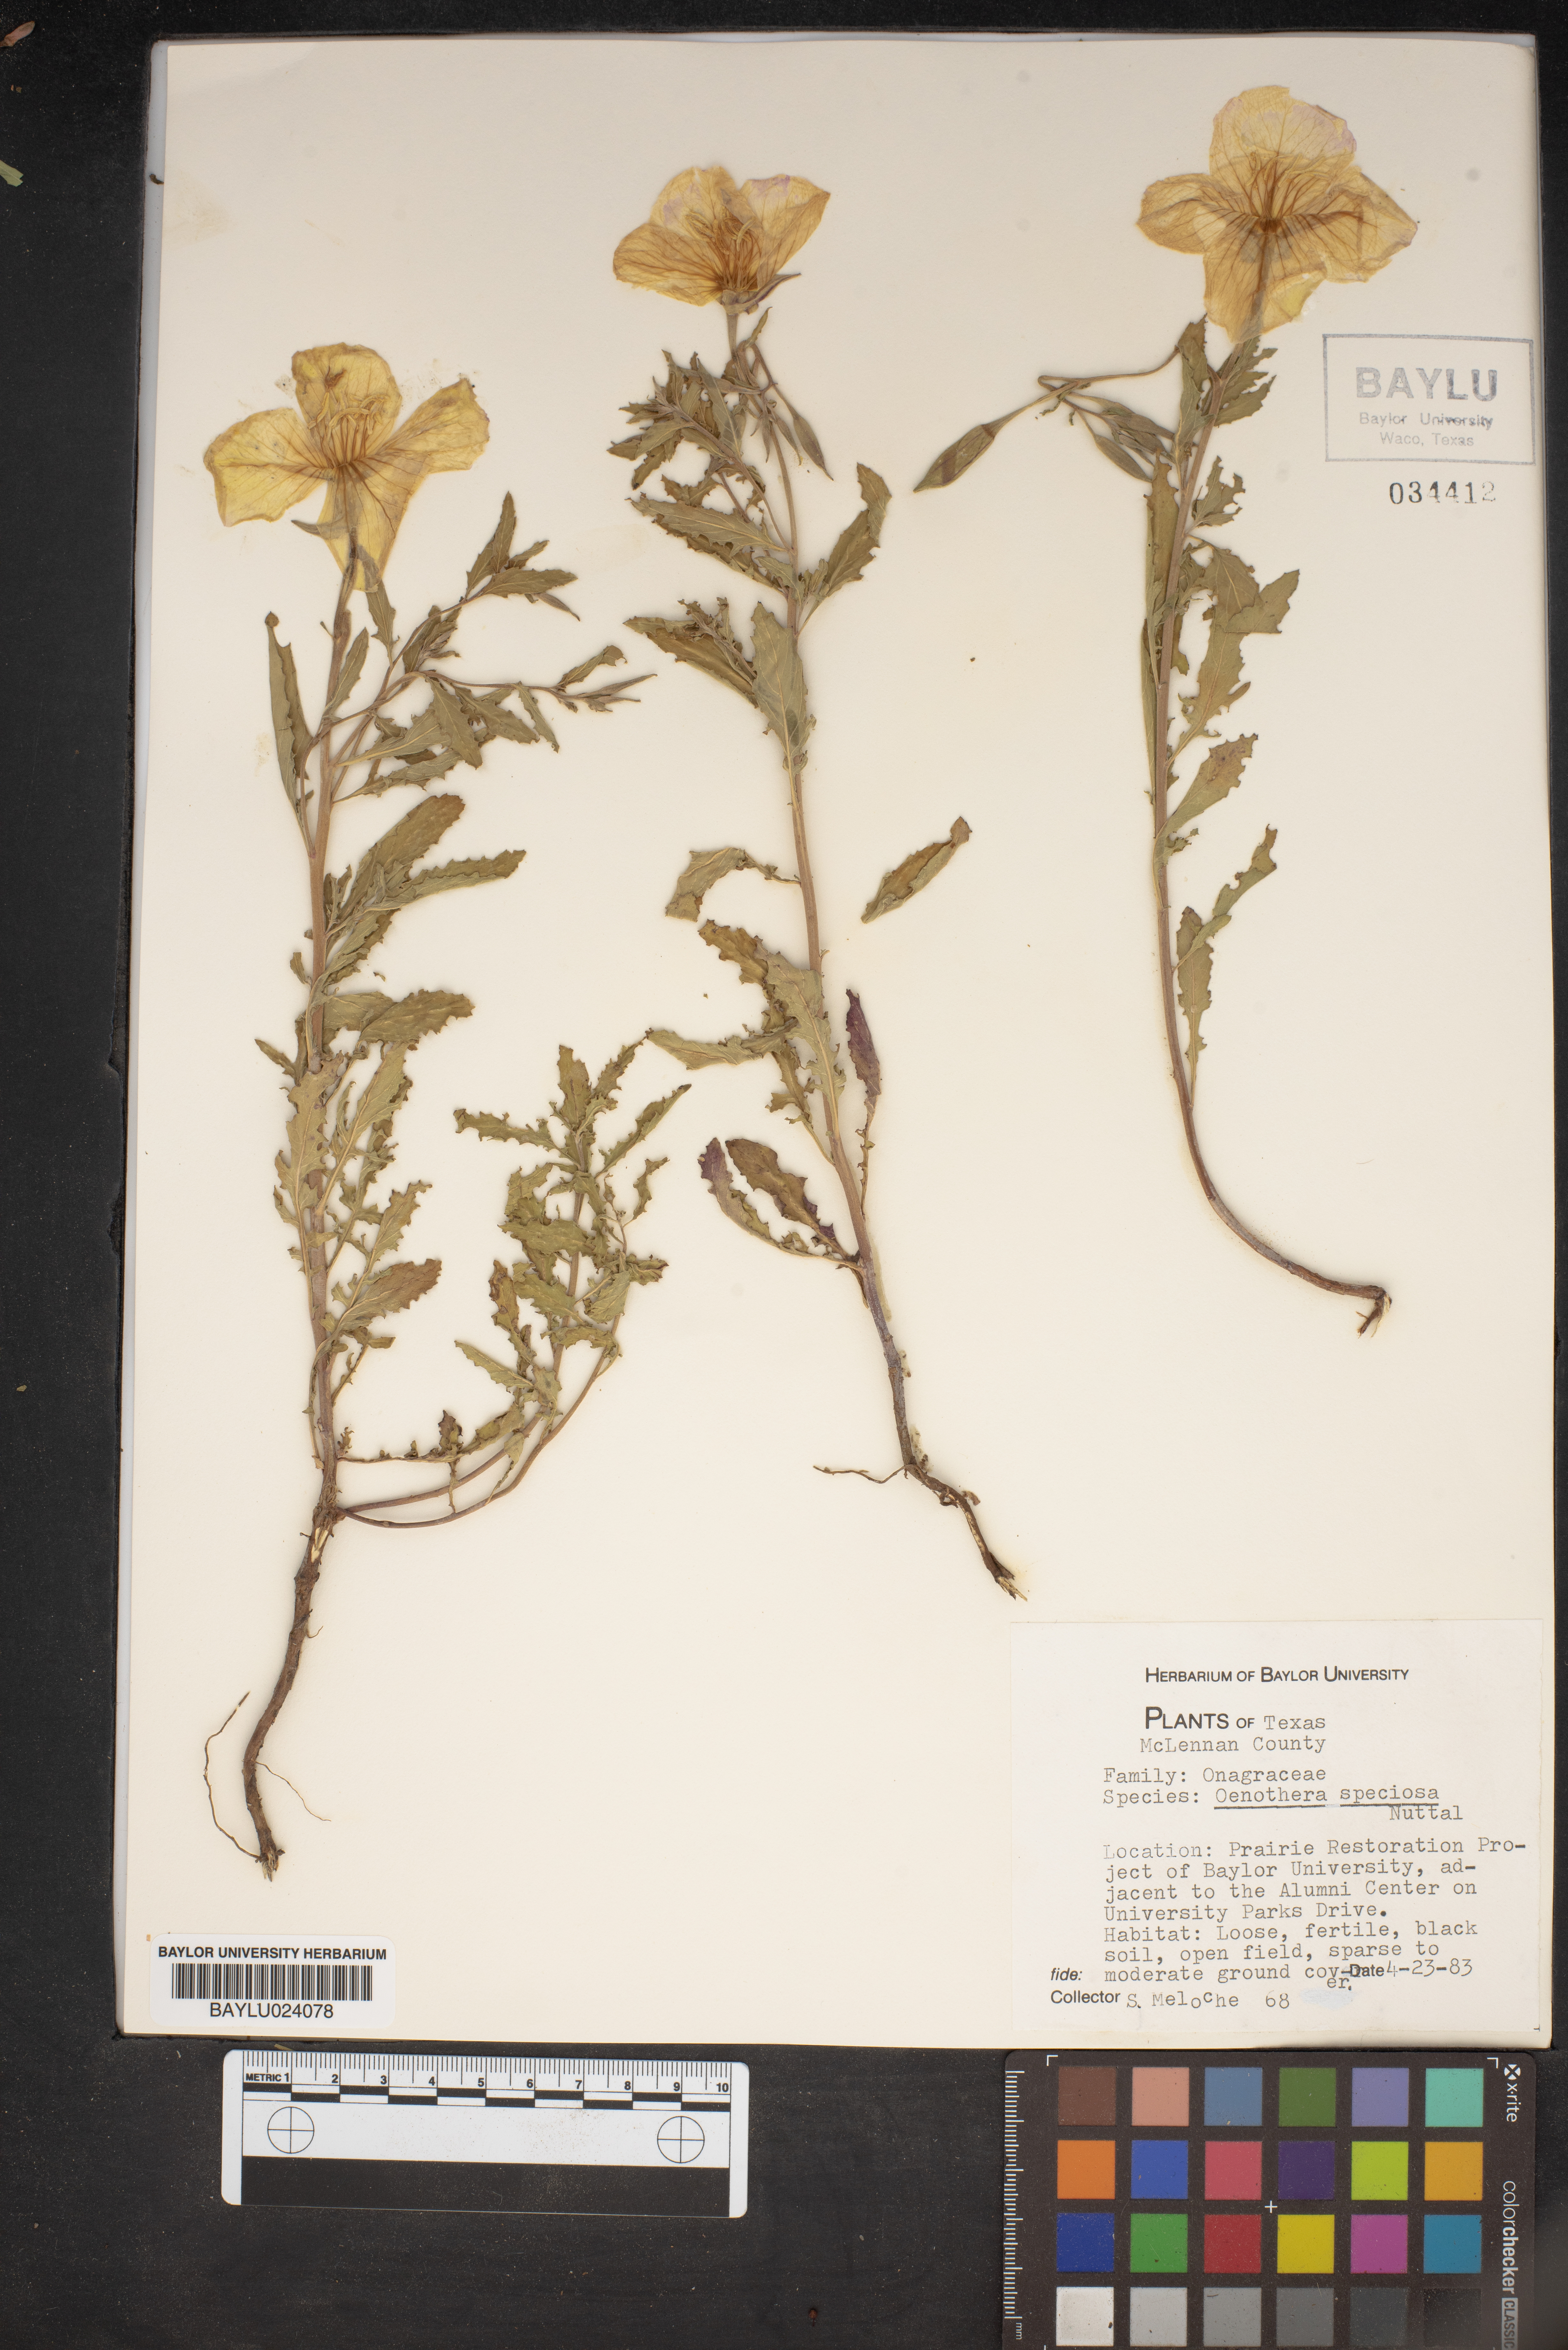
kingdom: Plantae
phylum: Tracheophyta
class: Magnoliopsida
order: Myrtales
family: Onagraceae
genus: Oenothera
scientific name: Oenothera speciosa
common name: White evening-primrose
